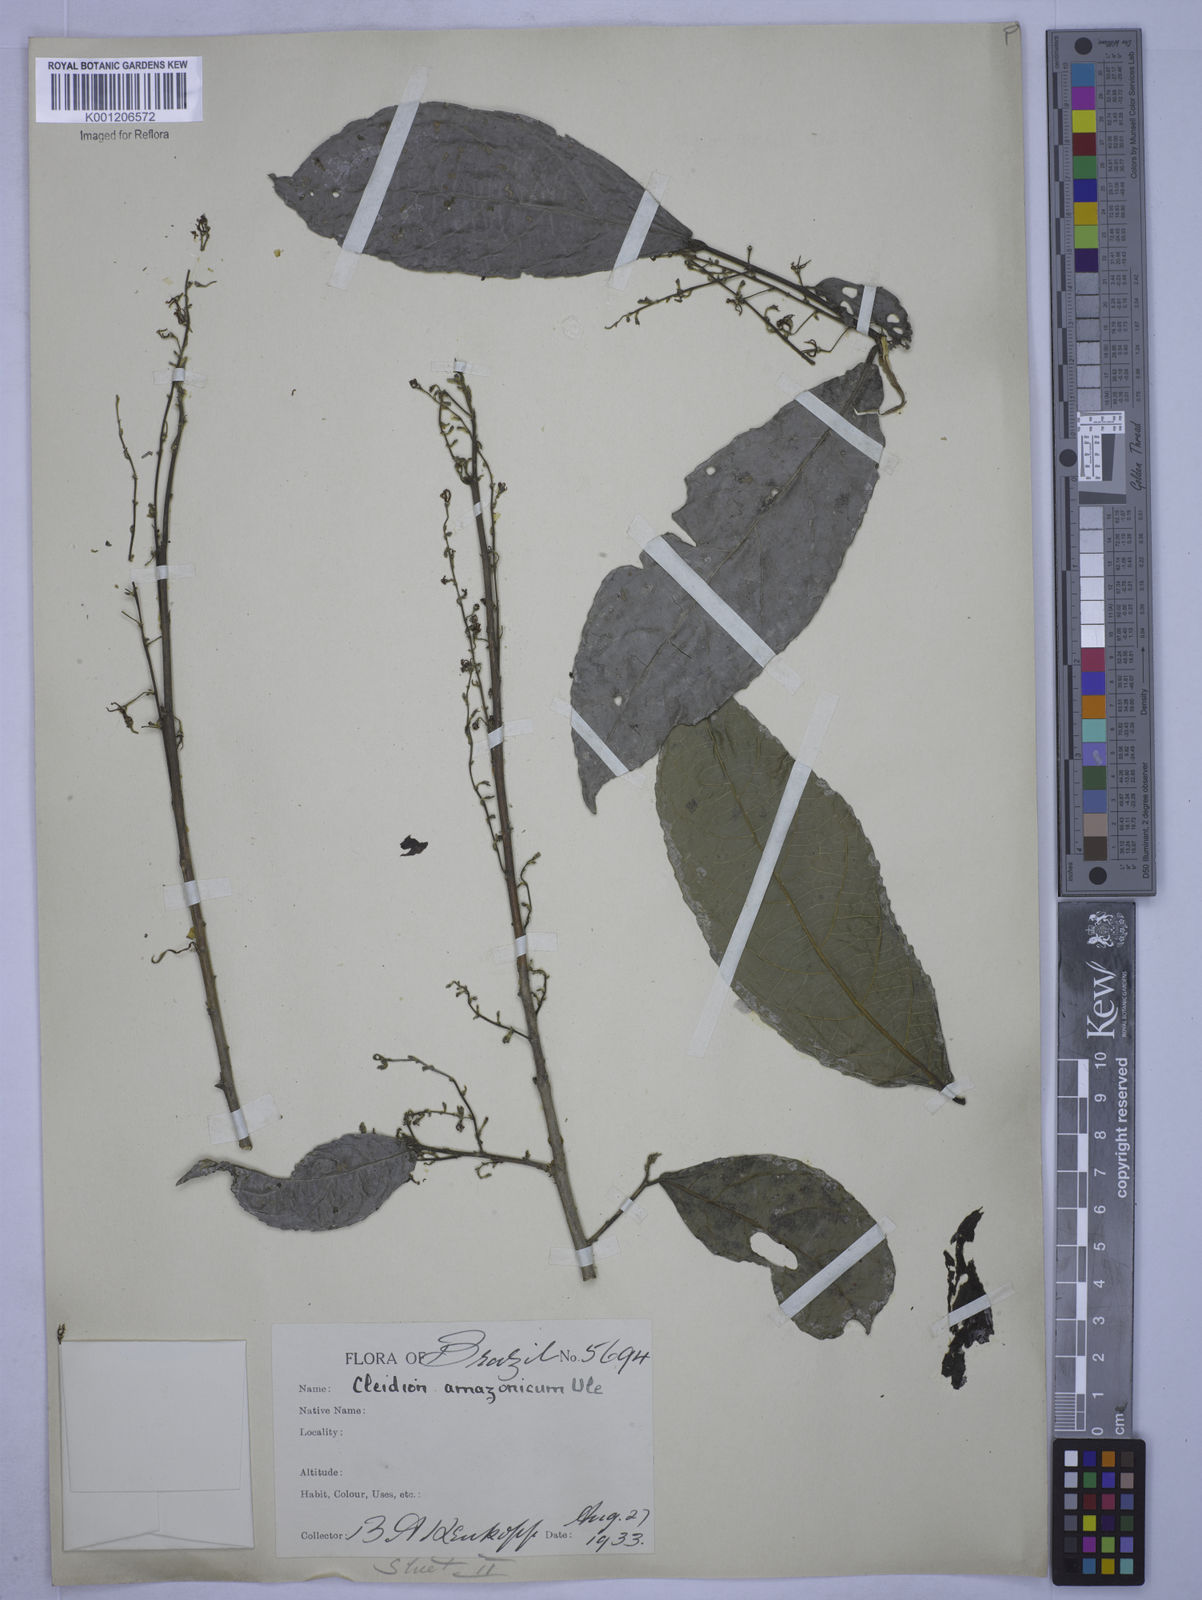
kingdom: Plantae
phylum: Tracheophyta
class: Magnoliopsida
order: Malpighiales
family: Euphorbiaceae
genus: Cleidion
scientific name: Cleidion amazonicum
